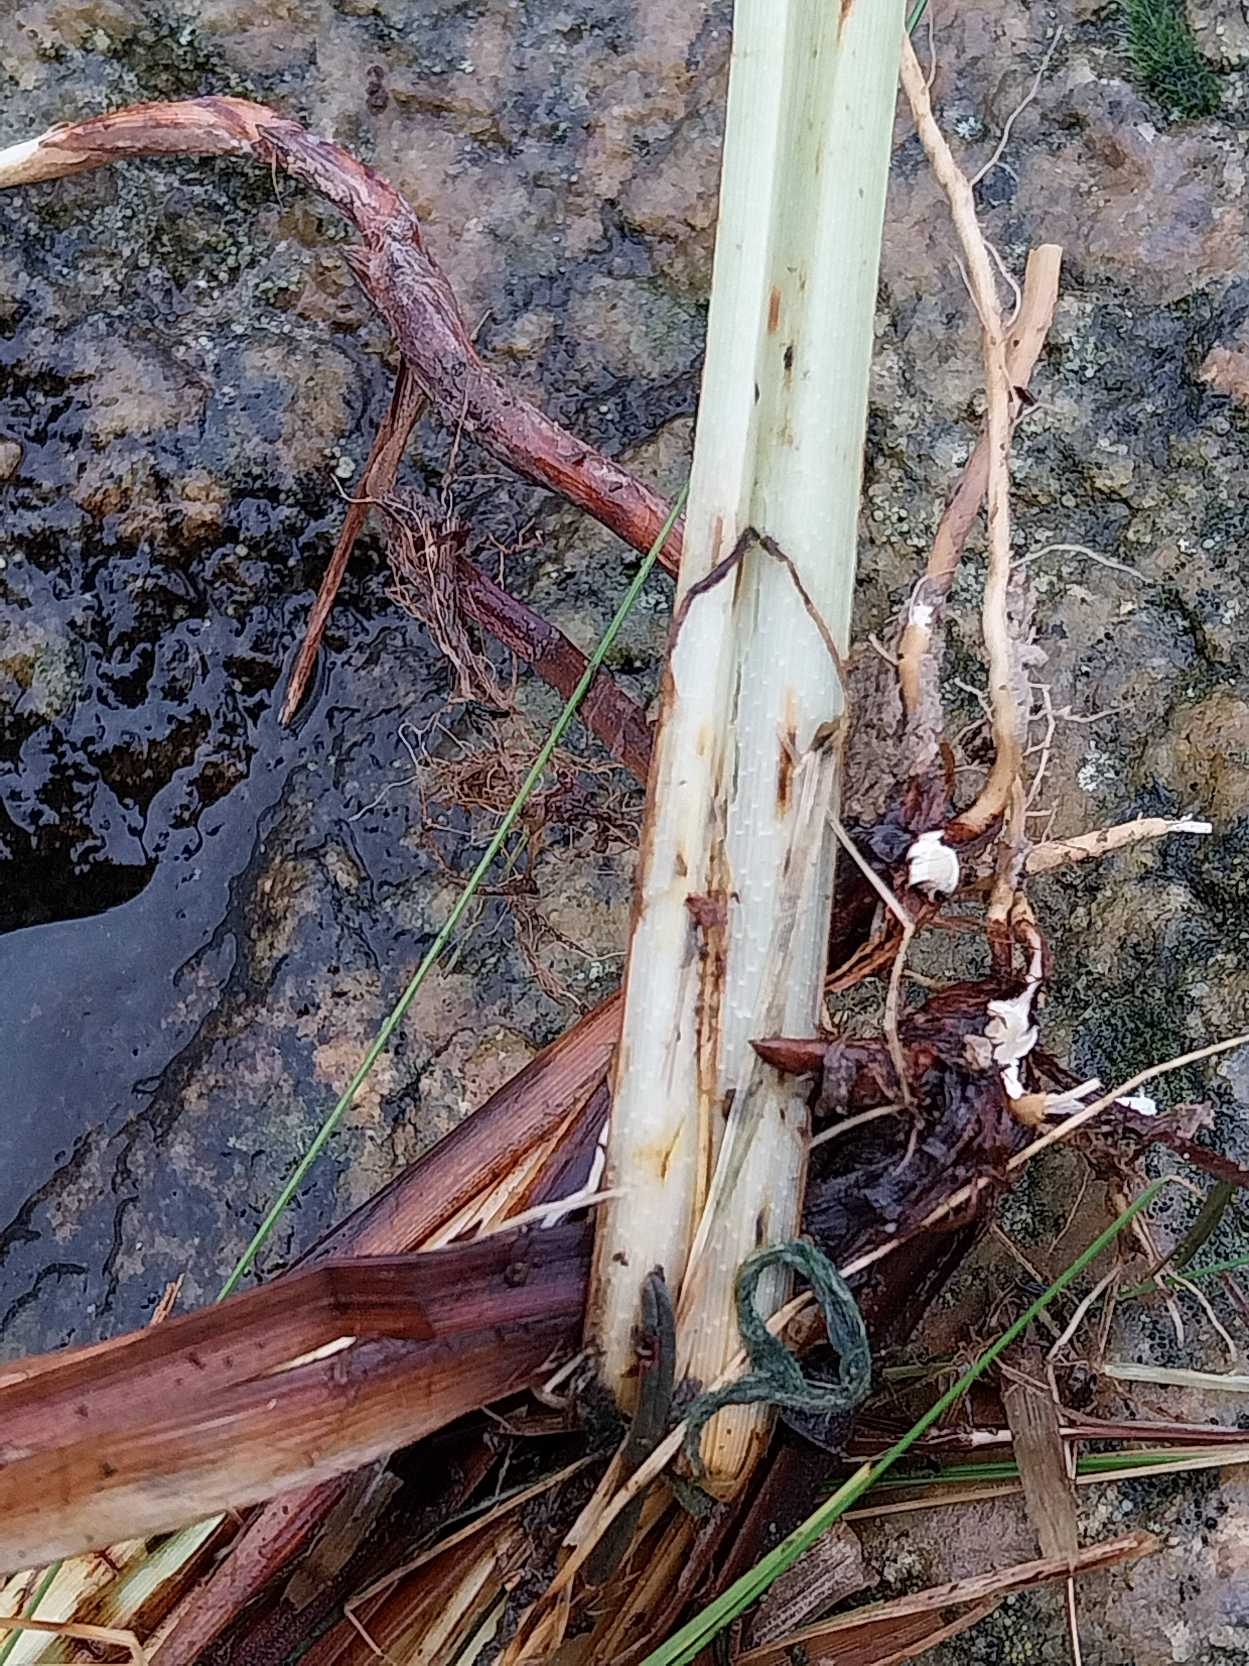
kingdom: Plantae
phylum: Tracheophyta
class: Liliopsida
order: Poales
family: Cyperaceae
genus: Carex
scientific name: Carex acutiformis
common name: Kær-star
